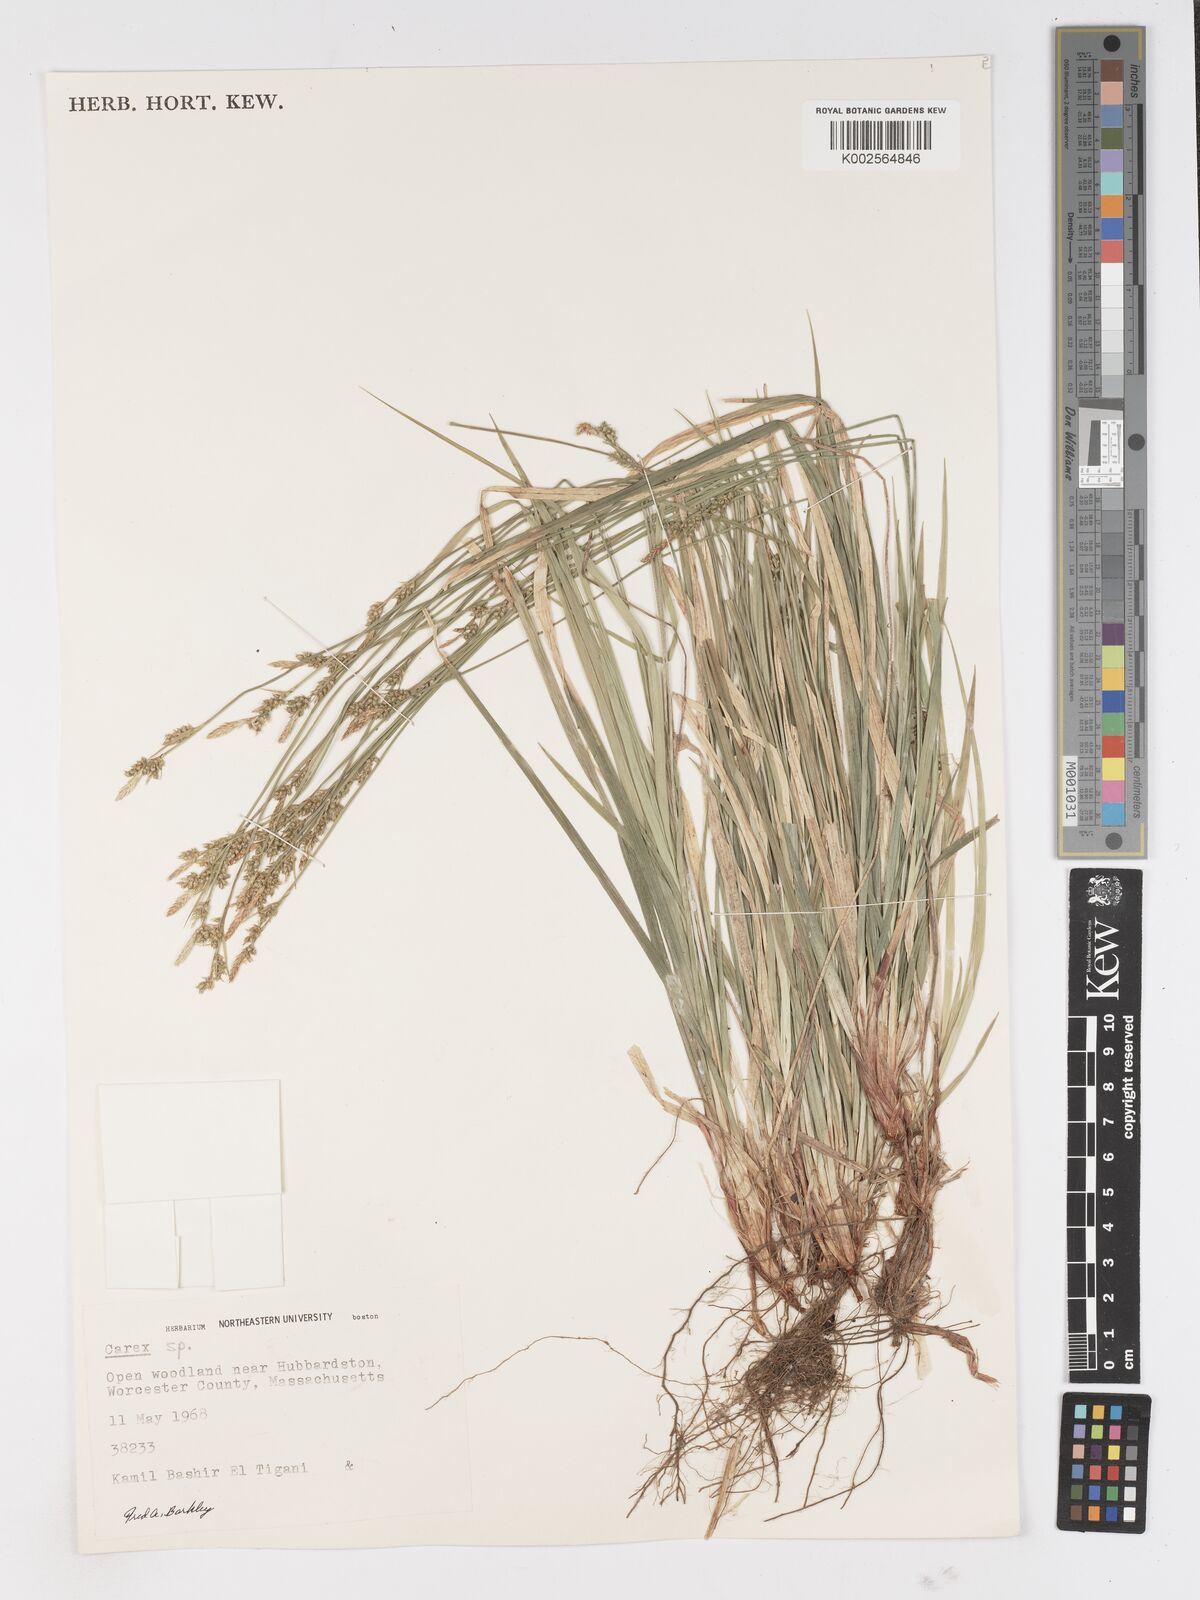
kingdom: Plantae
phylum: Tracheophyta
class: Liliopsida
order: Poales
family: Cyperaceae
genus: Carex
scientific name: Carex
